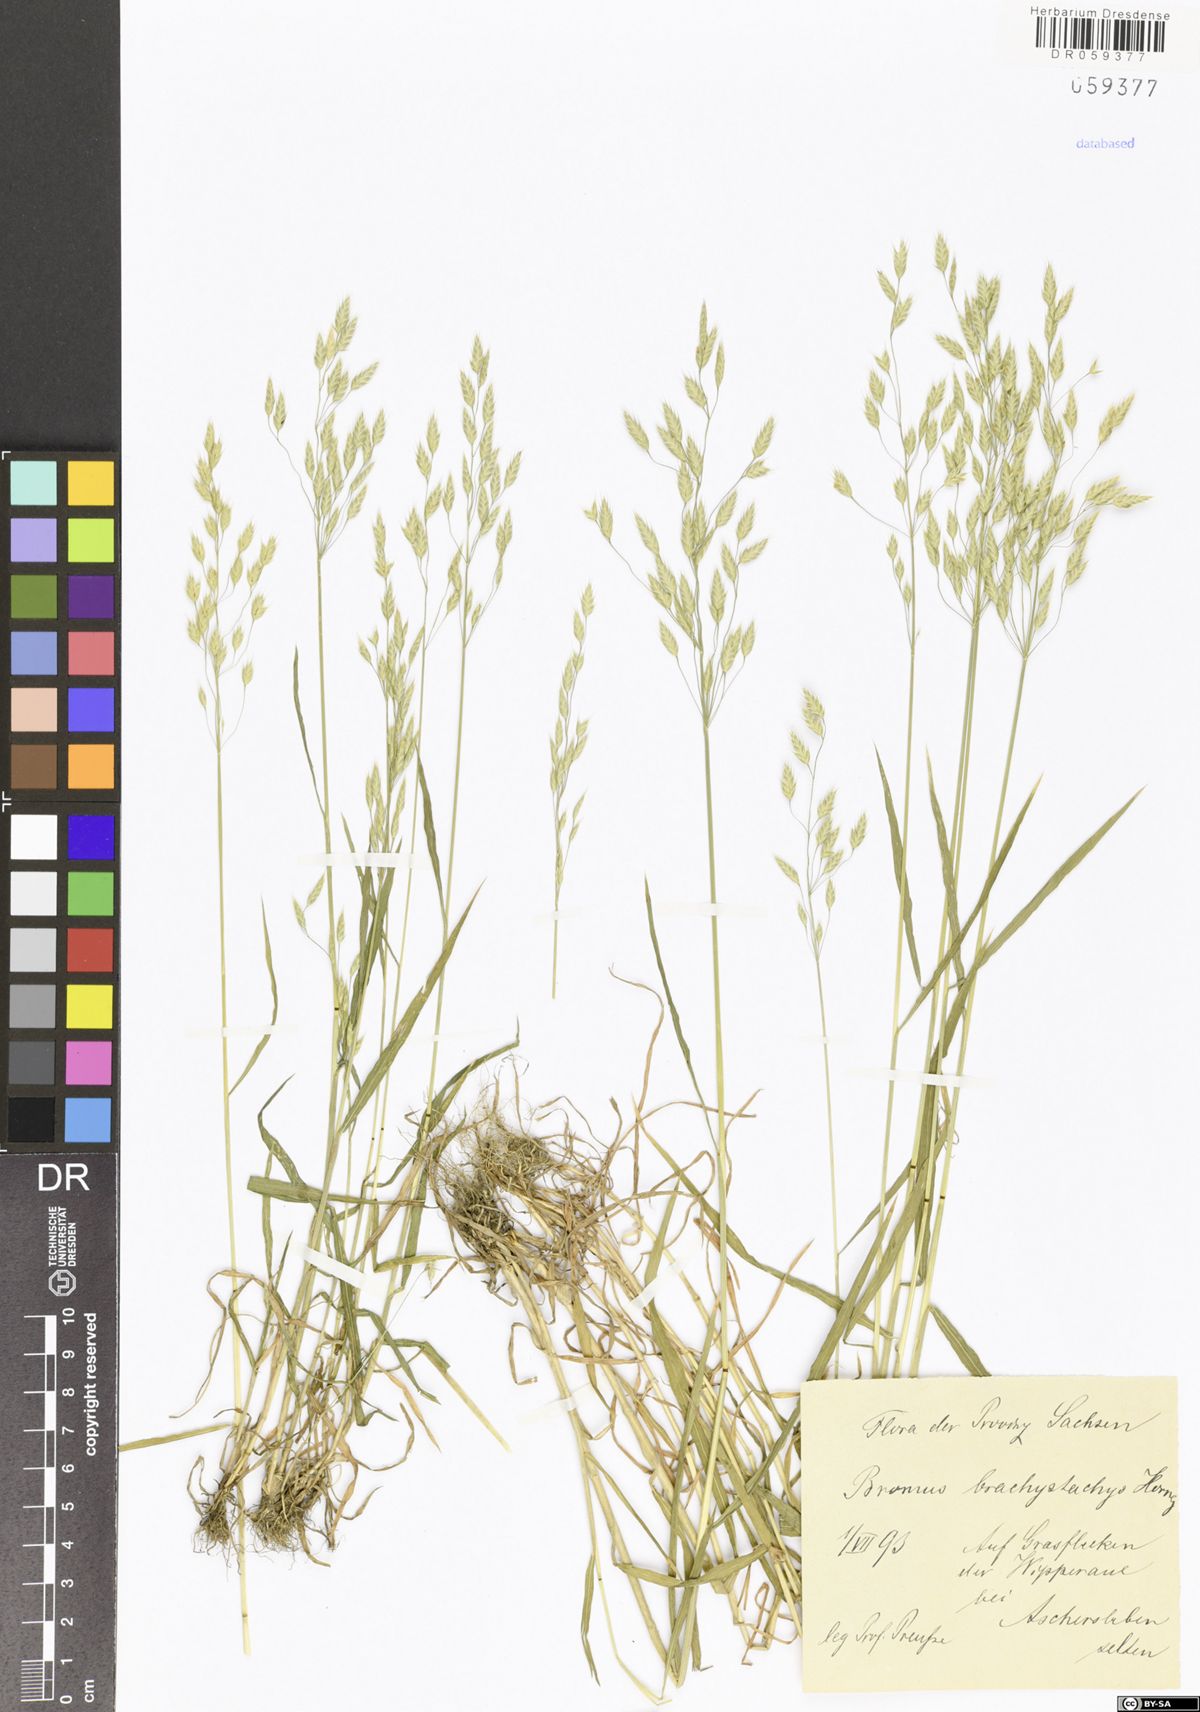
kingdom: Plantae
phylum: Tracheophyta
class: Liliopsida
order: Poales
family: Poaceae
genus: Bromus
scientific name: Bromus brachystachys
